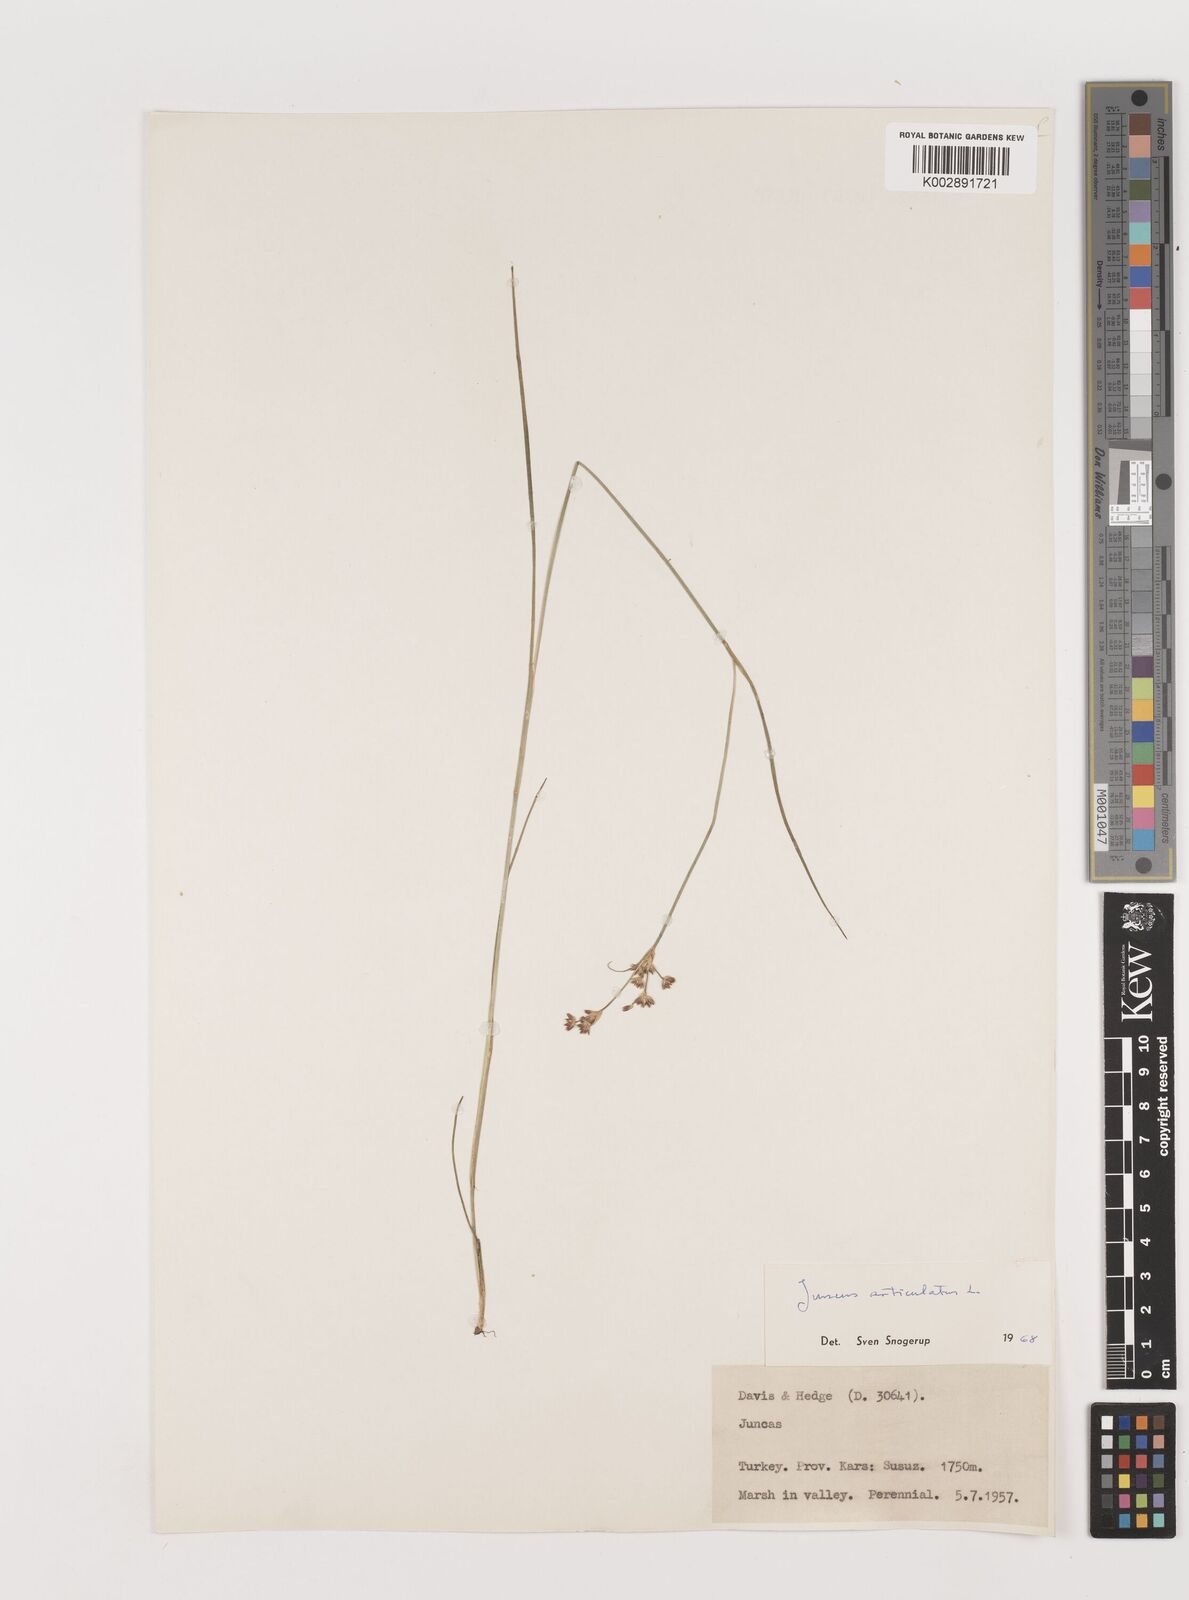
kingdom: Plantae
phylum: Tracheophyta
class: Liliopsida
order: Poales
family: Juncaceae
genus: Juncus
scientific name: Juncus articulatus
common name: Jointed rush
